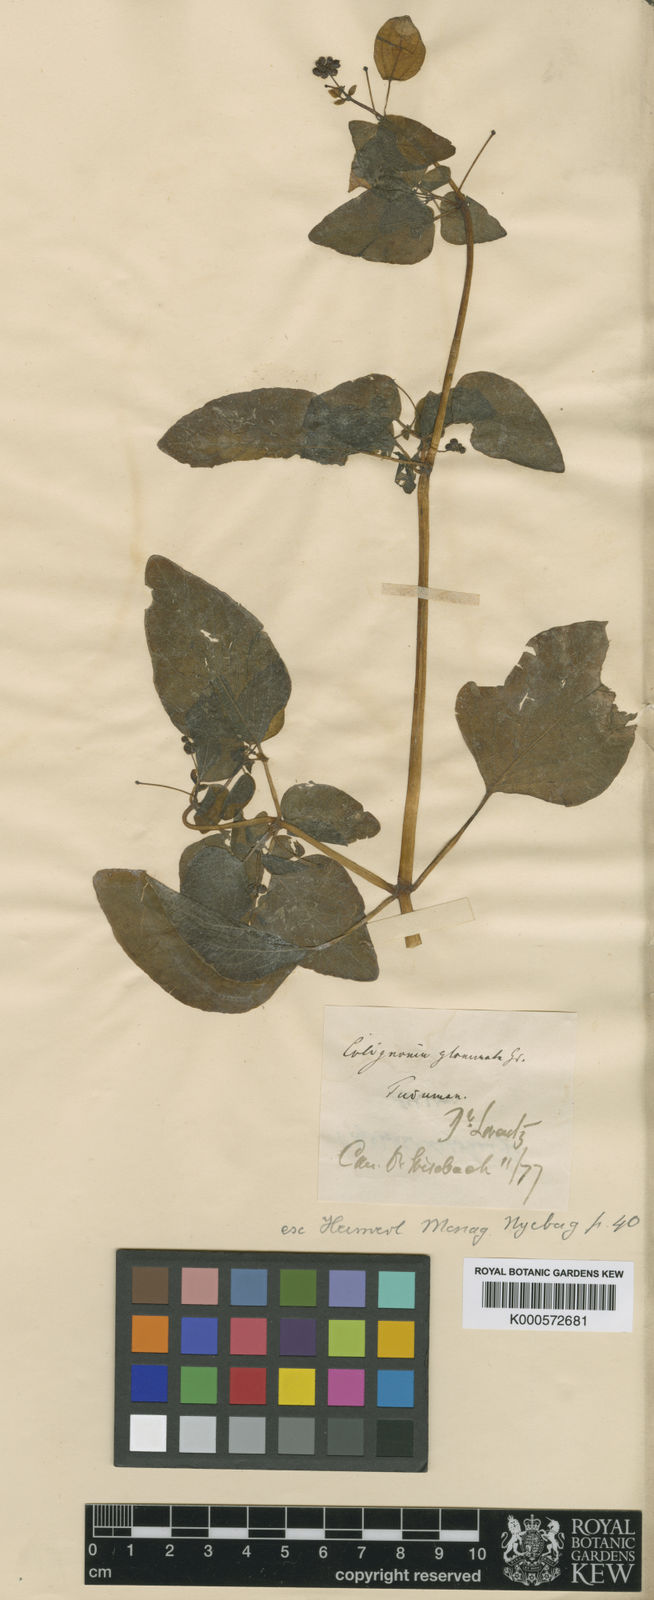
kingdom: Plantae
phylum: Tracheophyta
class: Magnoliopsida
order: Caryophyllales
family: Nyctaginaceae
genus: Colignonia
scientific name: Colignonia glomerata
